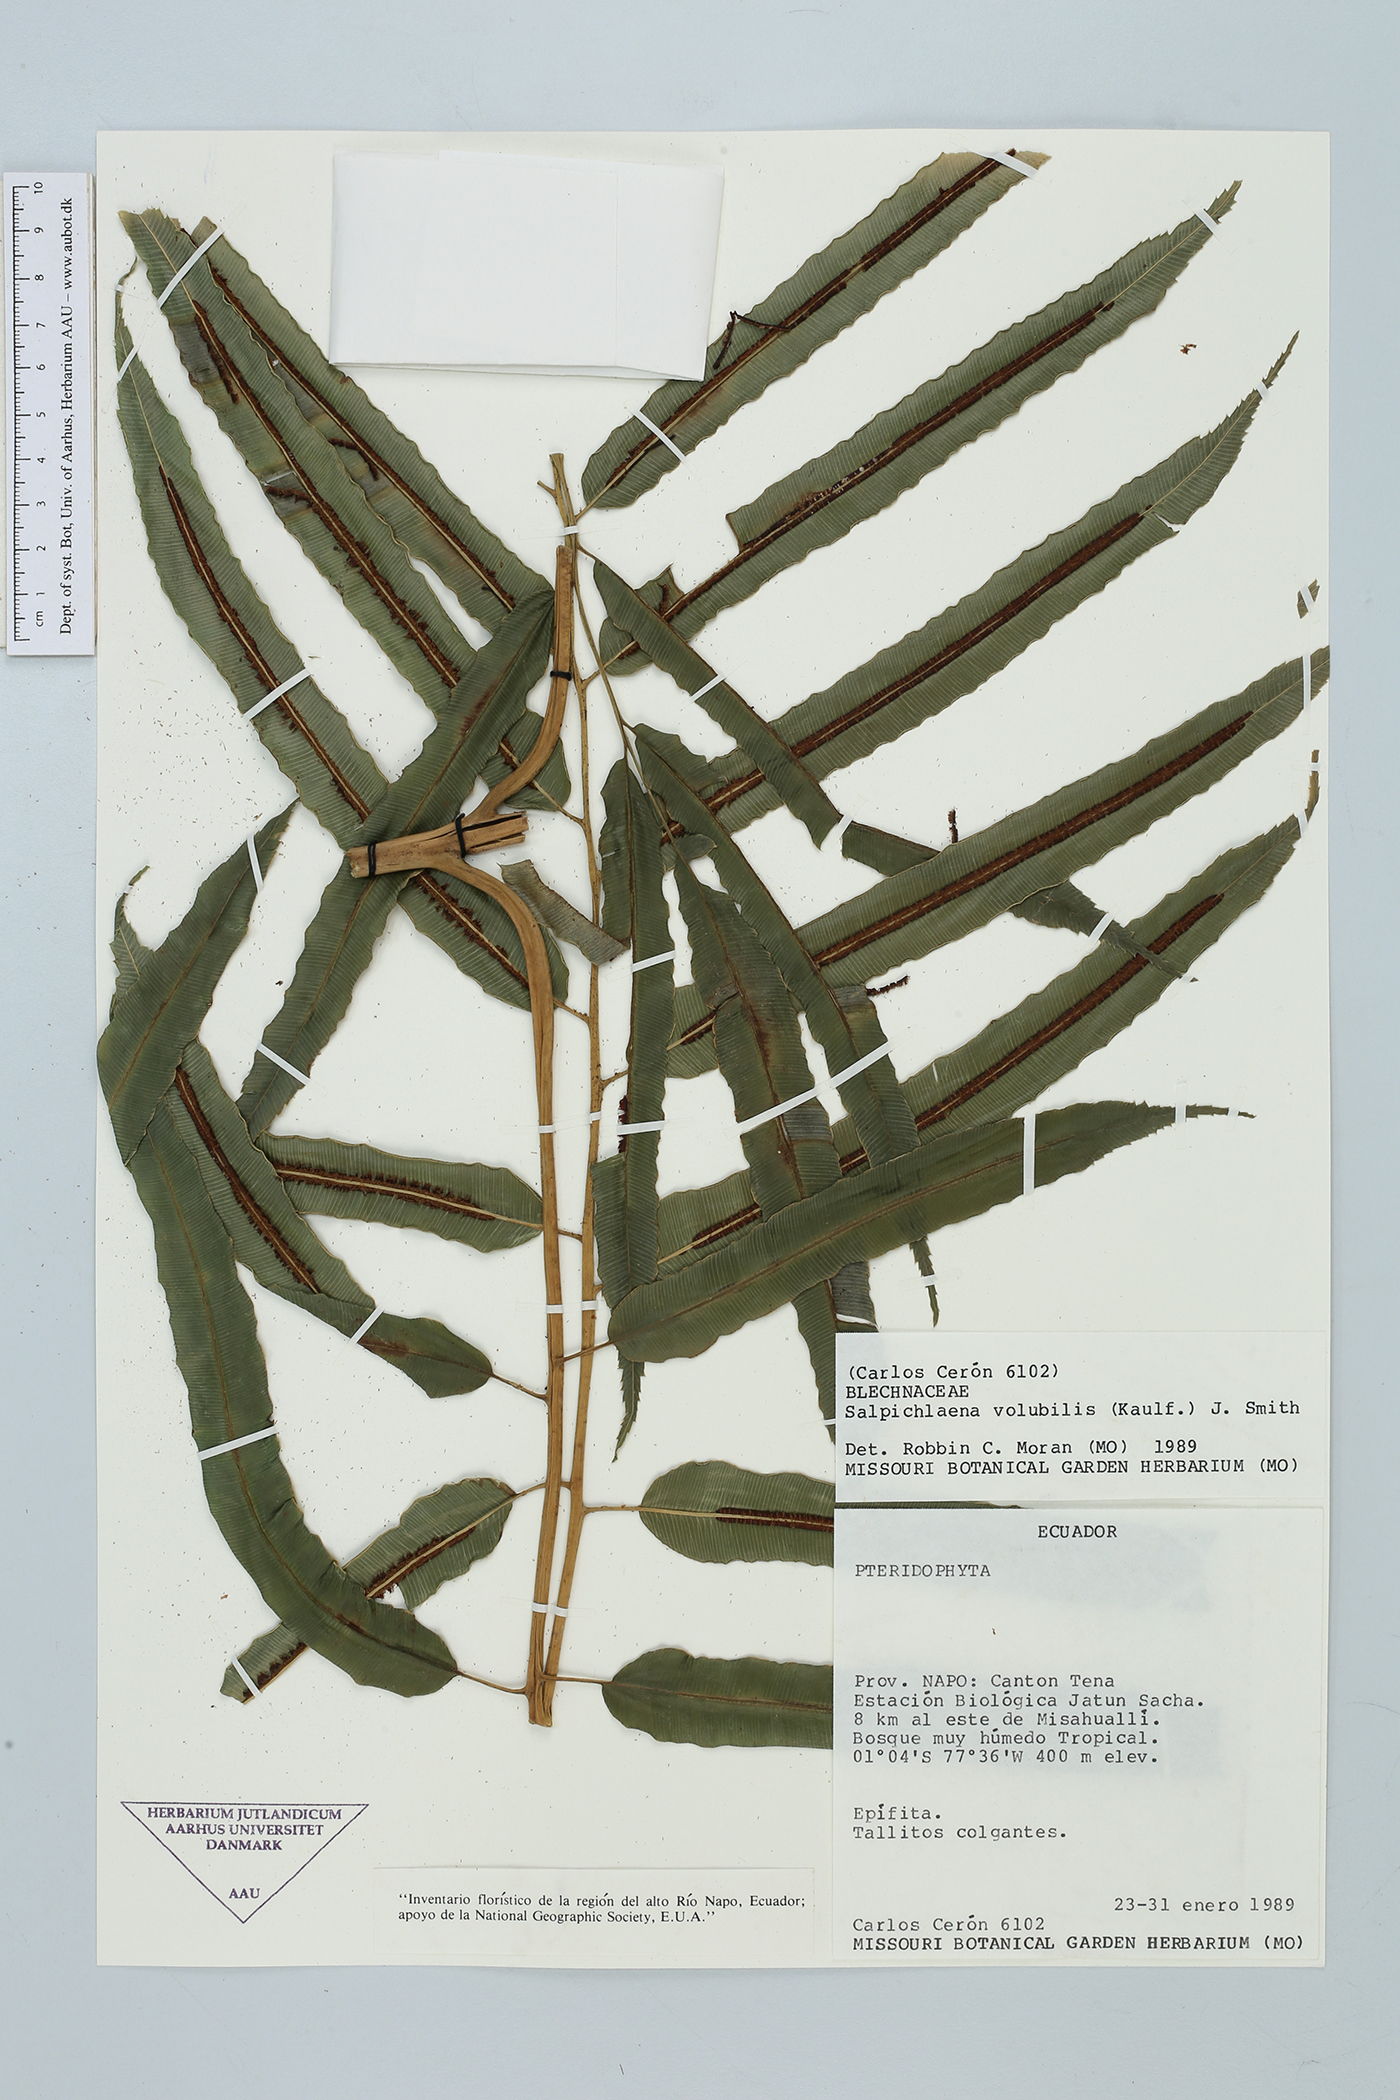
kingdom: Plantae
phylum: Tracheophyta
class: Polypodiopsida
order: Polypodiales
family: Blechnaceae
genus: Salpichlaena
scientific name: Salpichlaena volubilis
